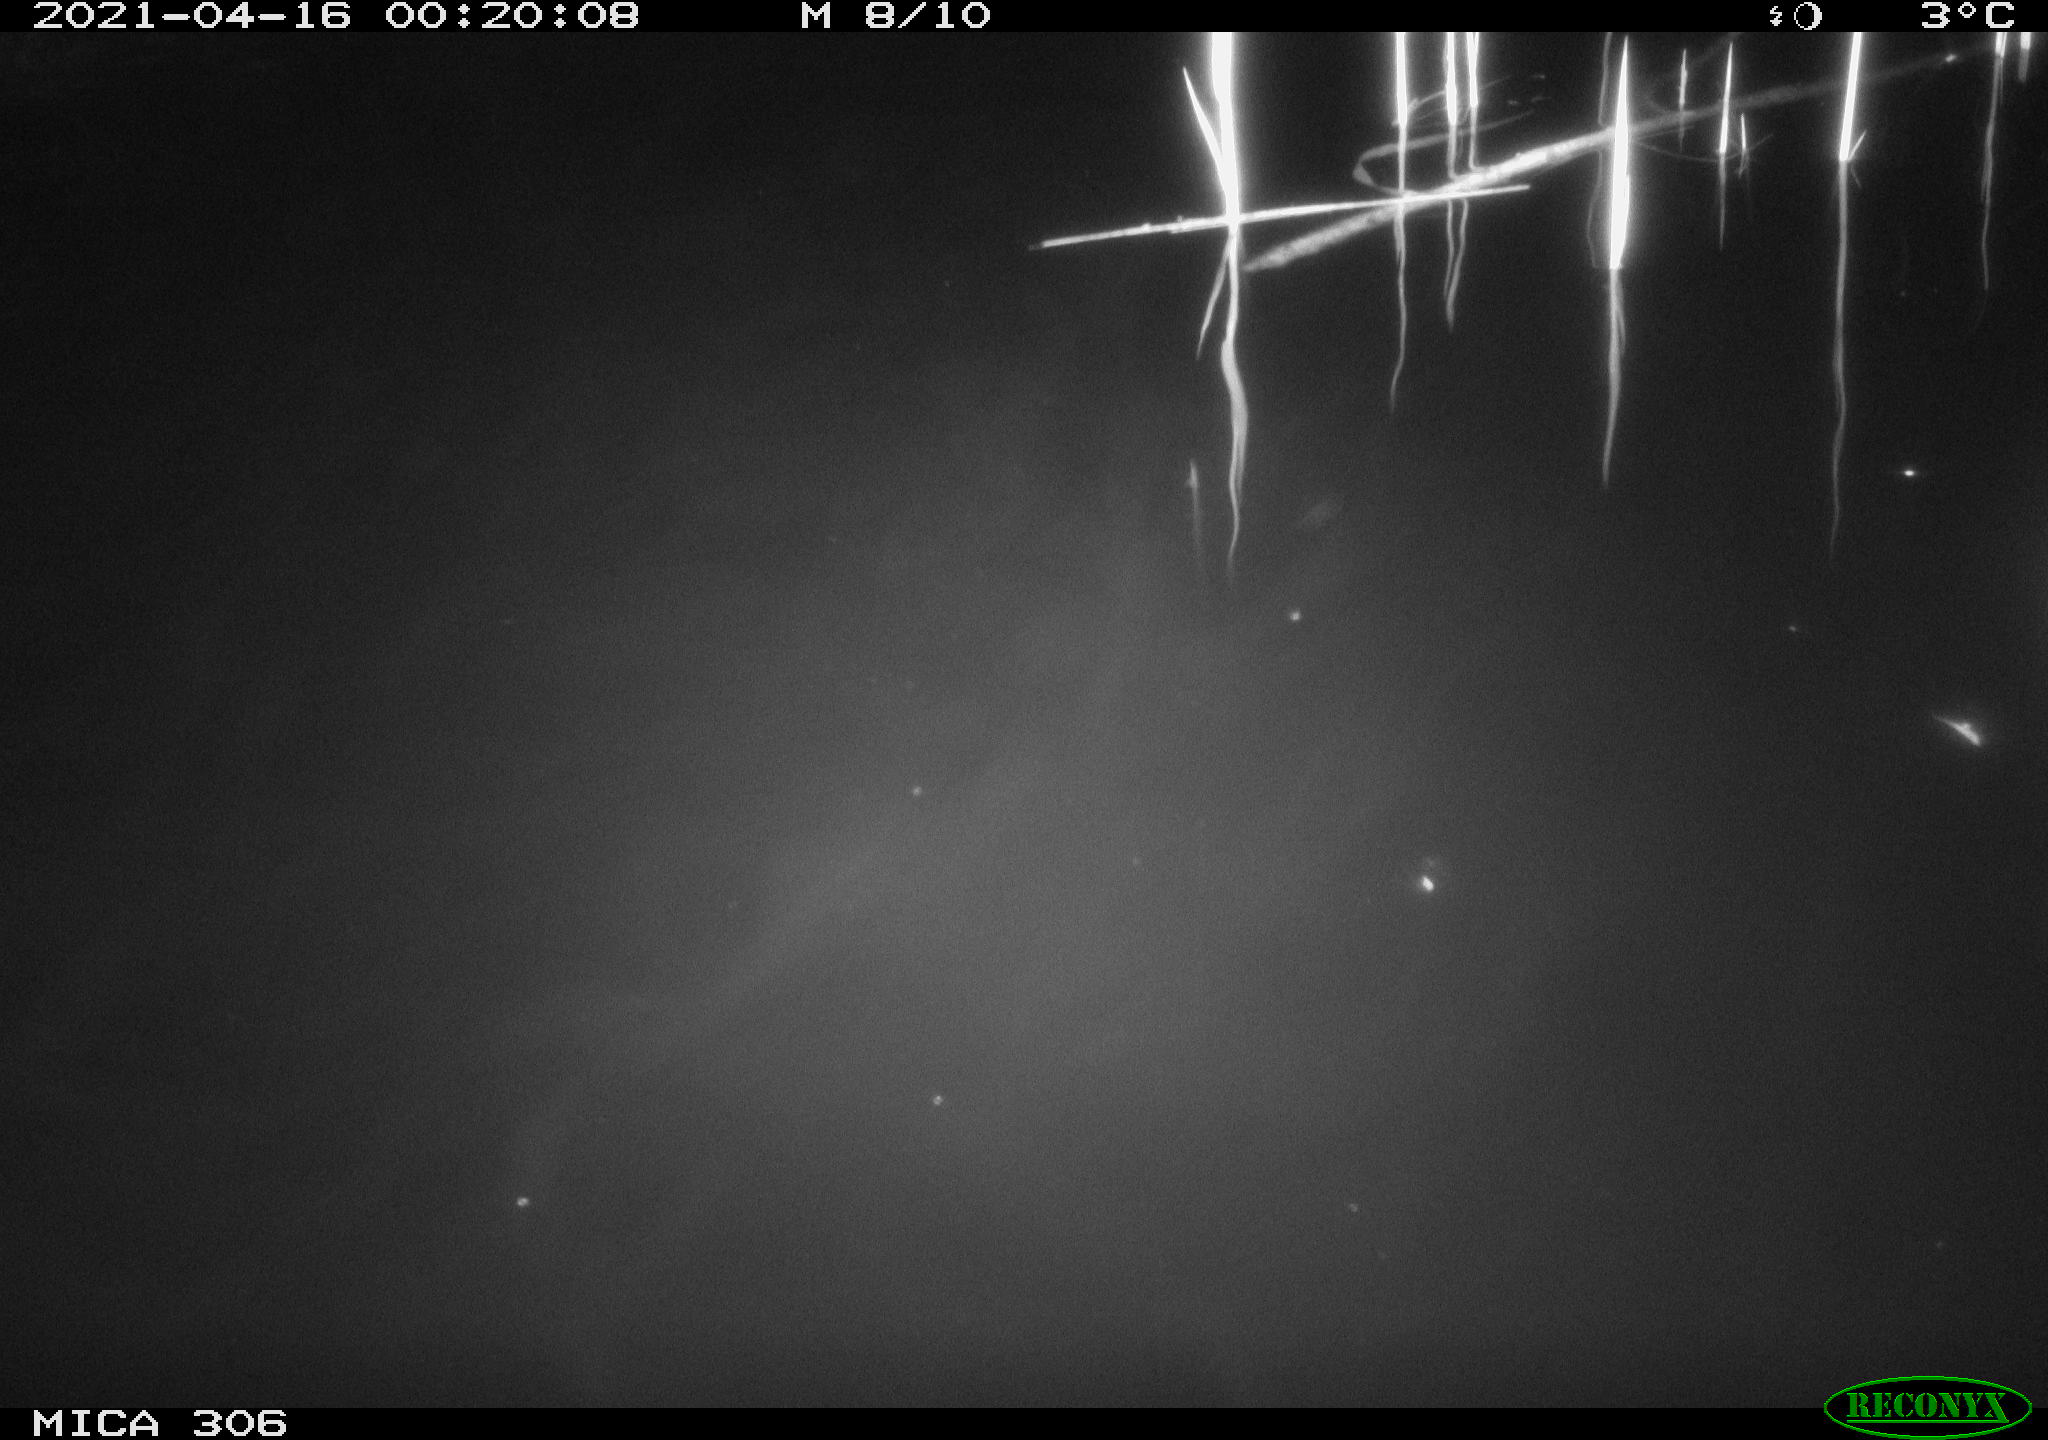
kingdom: Animalia
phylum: Chordata
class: Mammalia
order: Rodentia
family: Cricetidae
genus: Ondatra
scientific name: Ondatra zibethicus
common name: Muskrat
